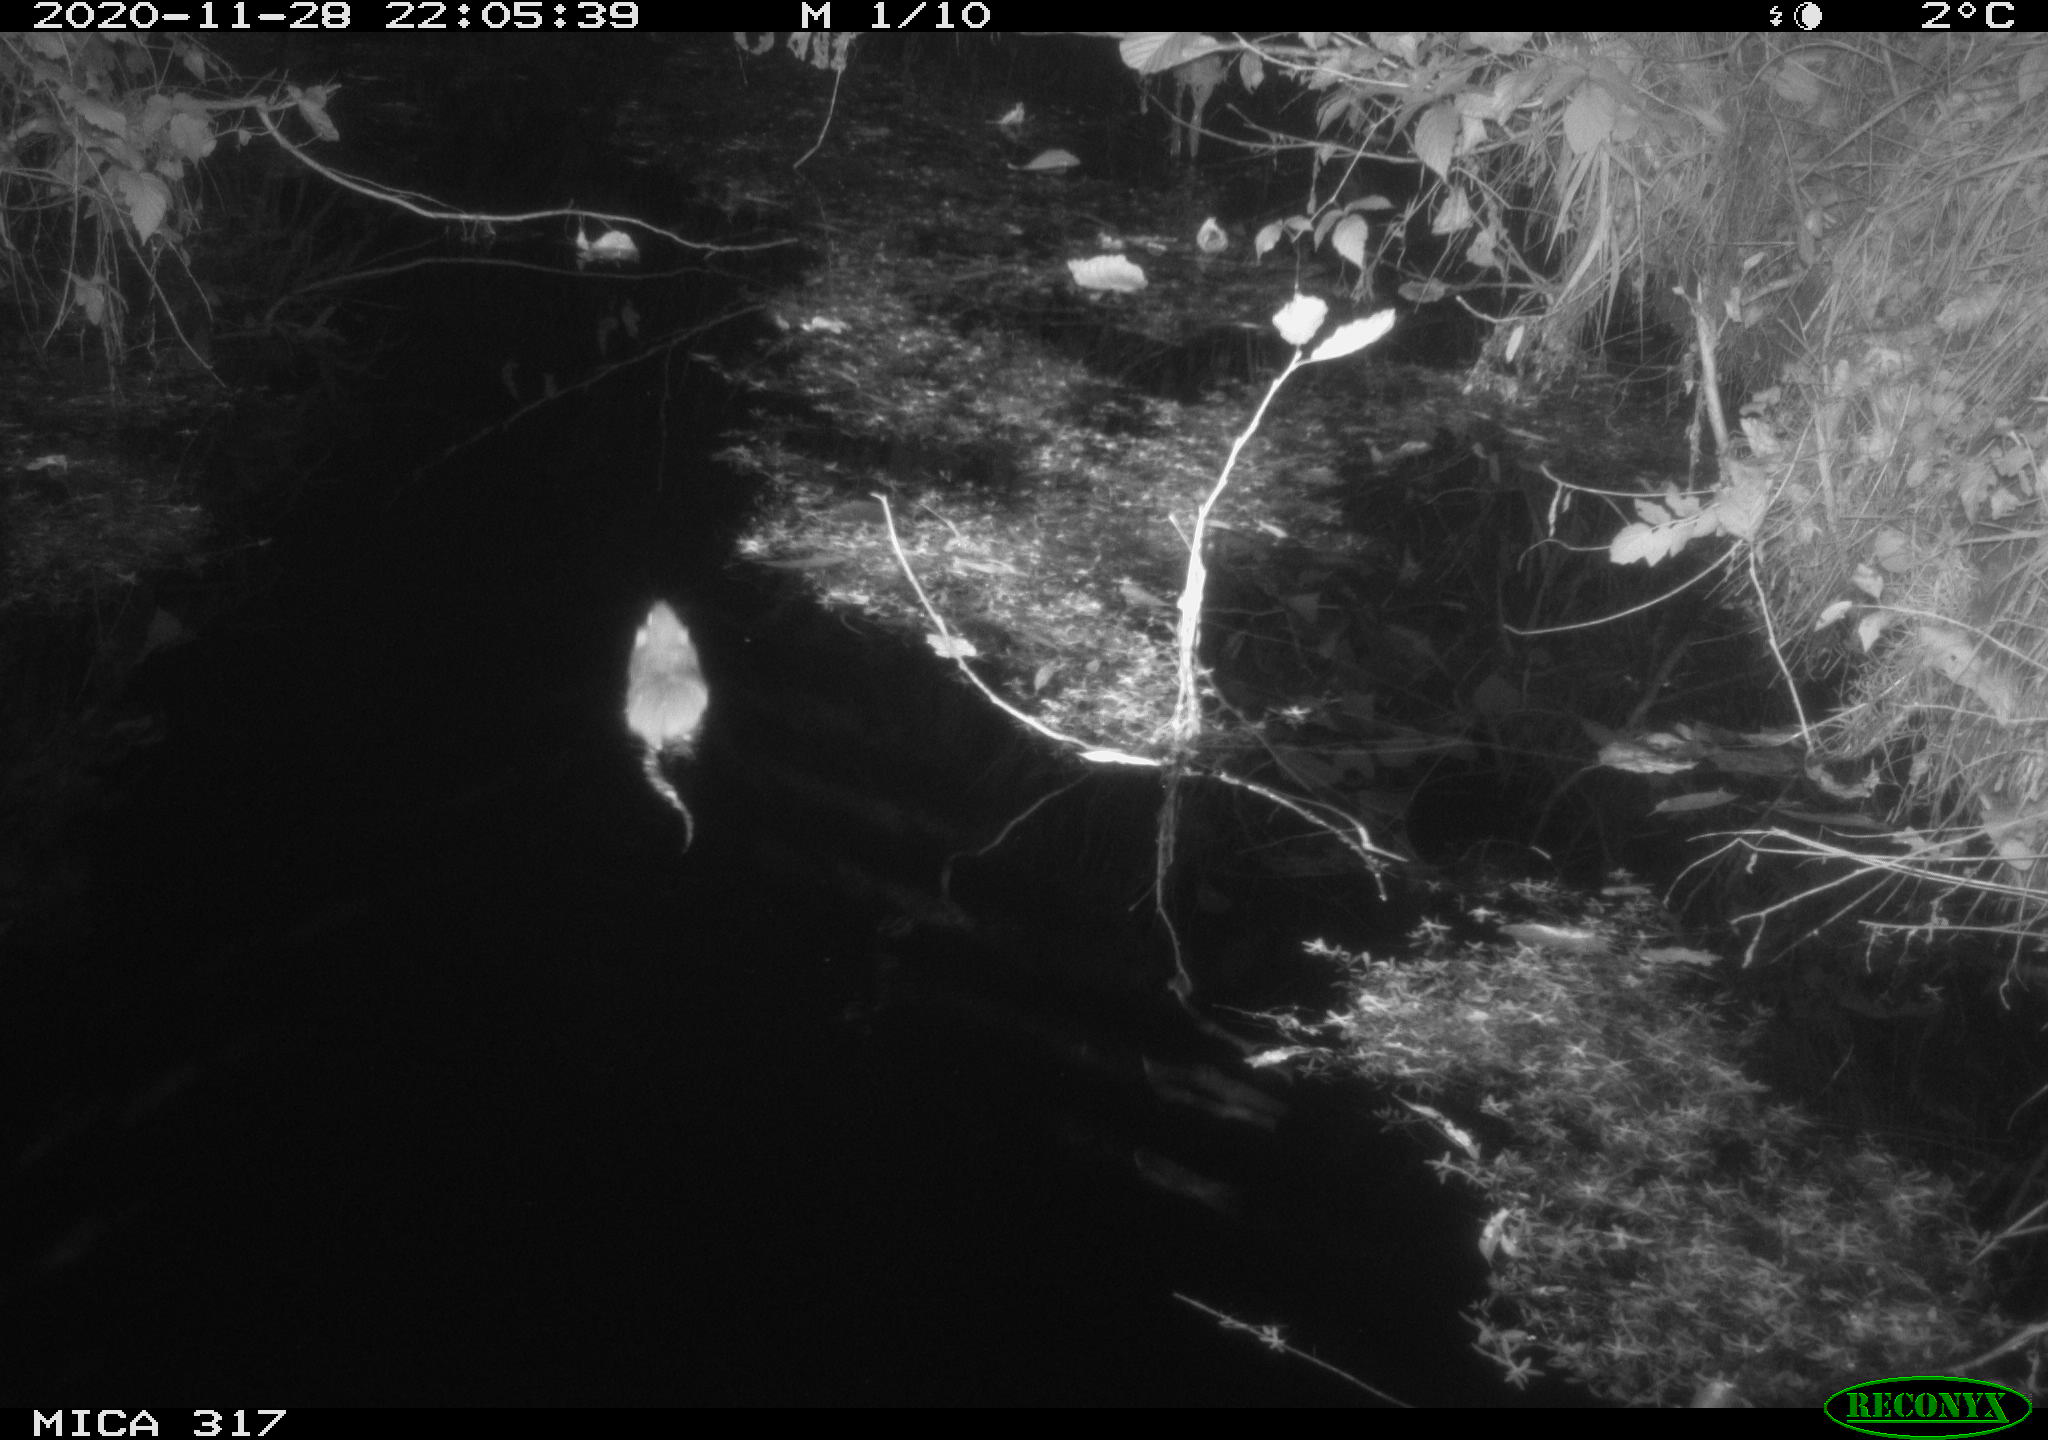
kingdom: Animalia
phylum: Chordata
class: Mammalia
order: Rodentia
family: Muridae
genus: Rattus
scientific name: Rattus norvegicus
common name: Brown rat
